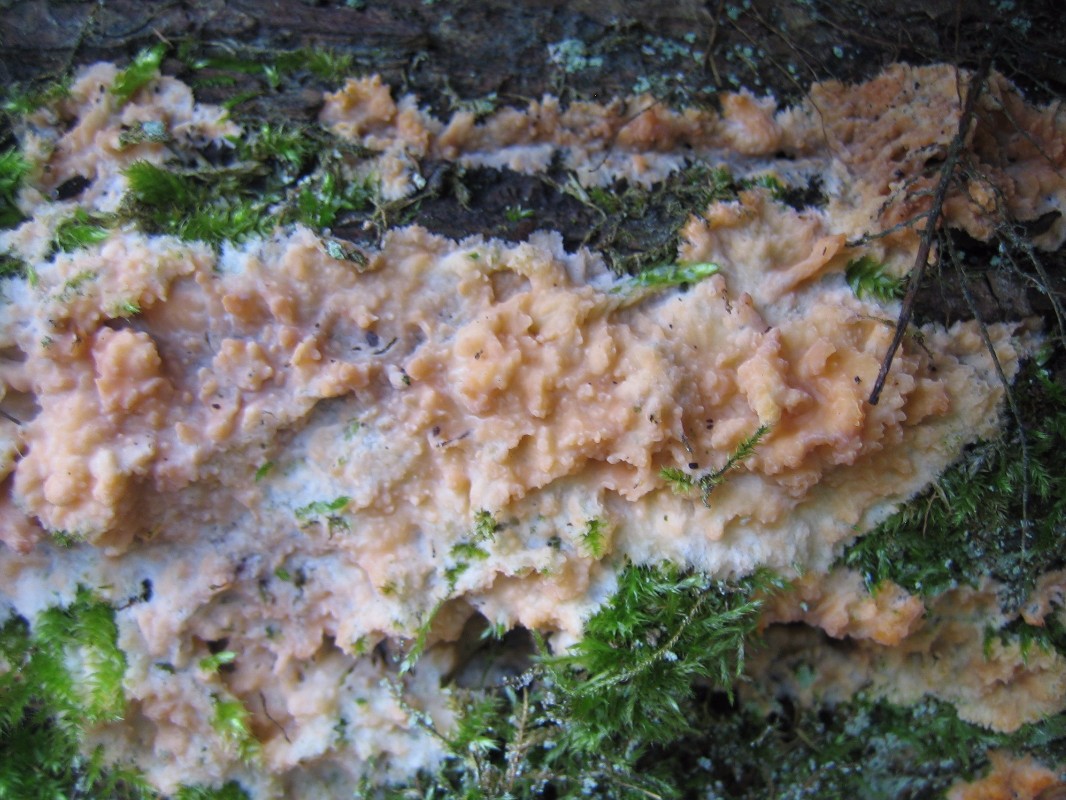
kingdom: Fungi
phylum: Basidiomycota
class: Agaricomycetes
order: Polyporales
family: Meruliaceae
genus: Phlebia
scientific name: Phlebia radiata
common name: stråle-åresvamp
